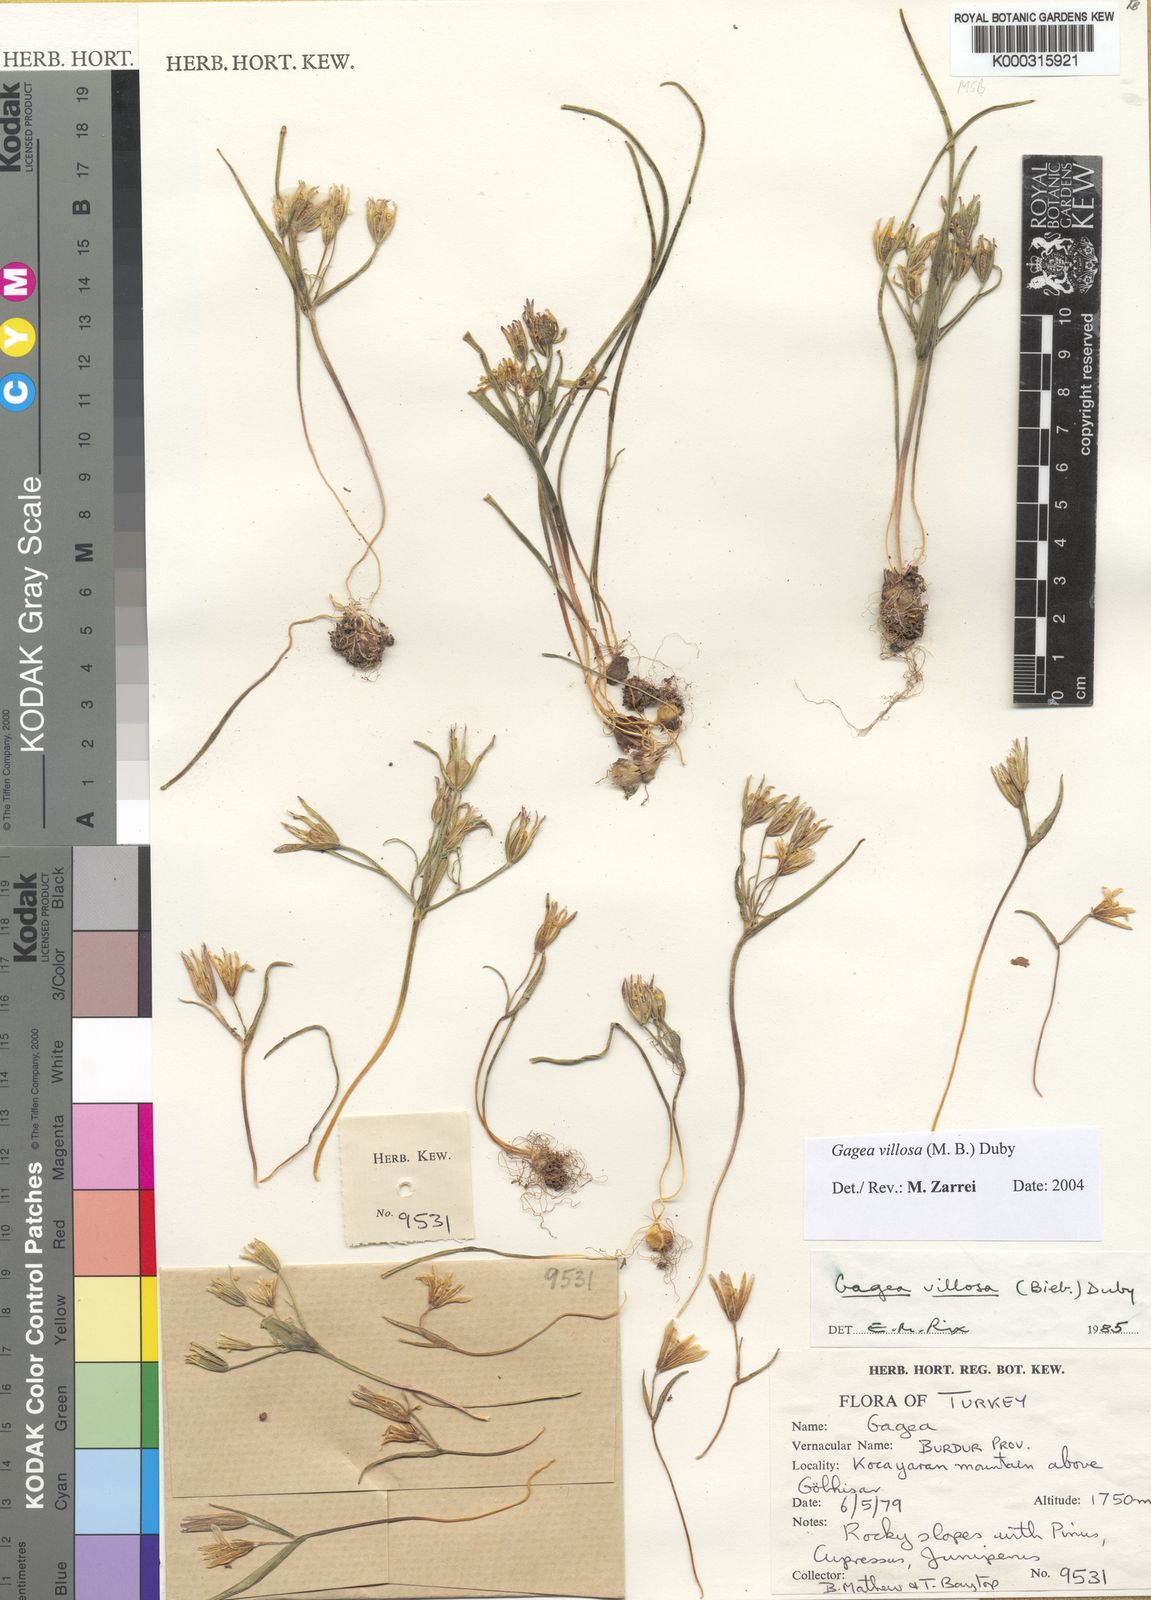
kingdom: Plantae
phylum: Tracheophyta
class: Liliopsida
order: Liliales
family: Liliaceae
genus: Gagea
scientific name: Gagea
